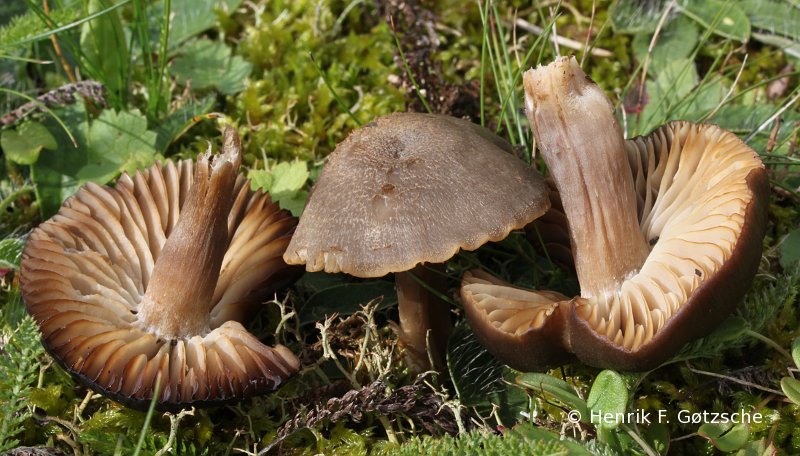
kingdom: Fungi
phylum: Basidiomycota
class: Agaricomycetes
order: Agaricales
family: Hygrophoraceae
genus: Neohygrocybe
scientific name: Neohygrocybe nitrata
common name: stinkende vokshat
